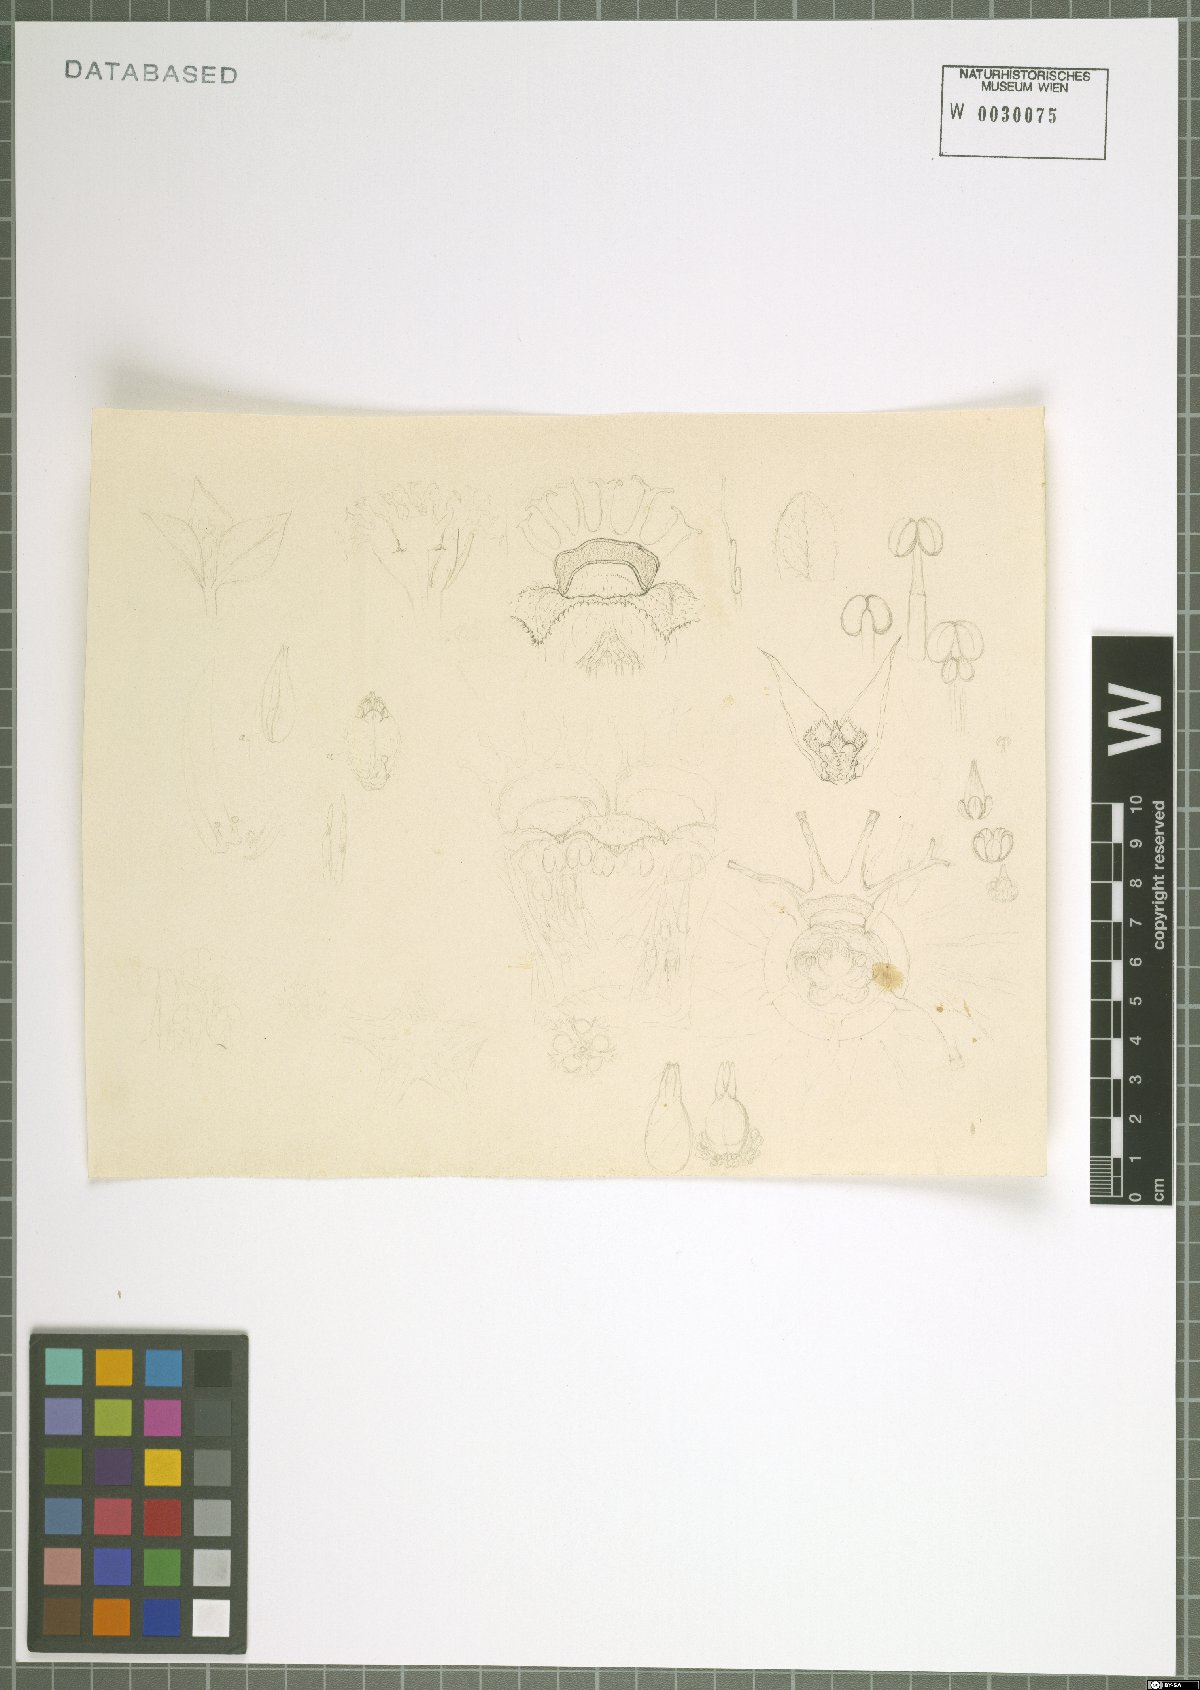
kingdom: Plantae
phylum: Tracheophyta
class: Magnoliopsida
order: Malpighiales
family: Euphorbiaceae
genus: Euphorbia
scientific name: Euphorbia sessilifolia
